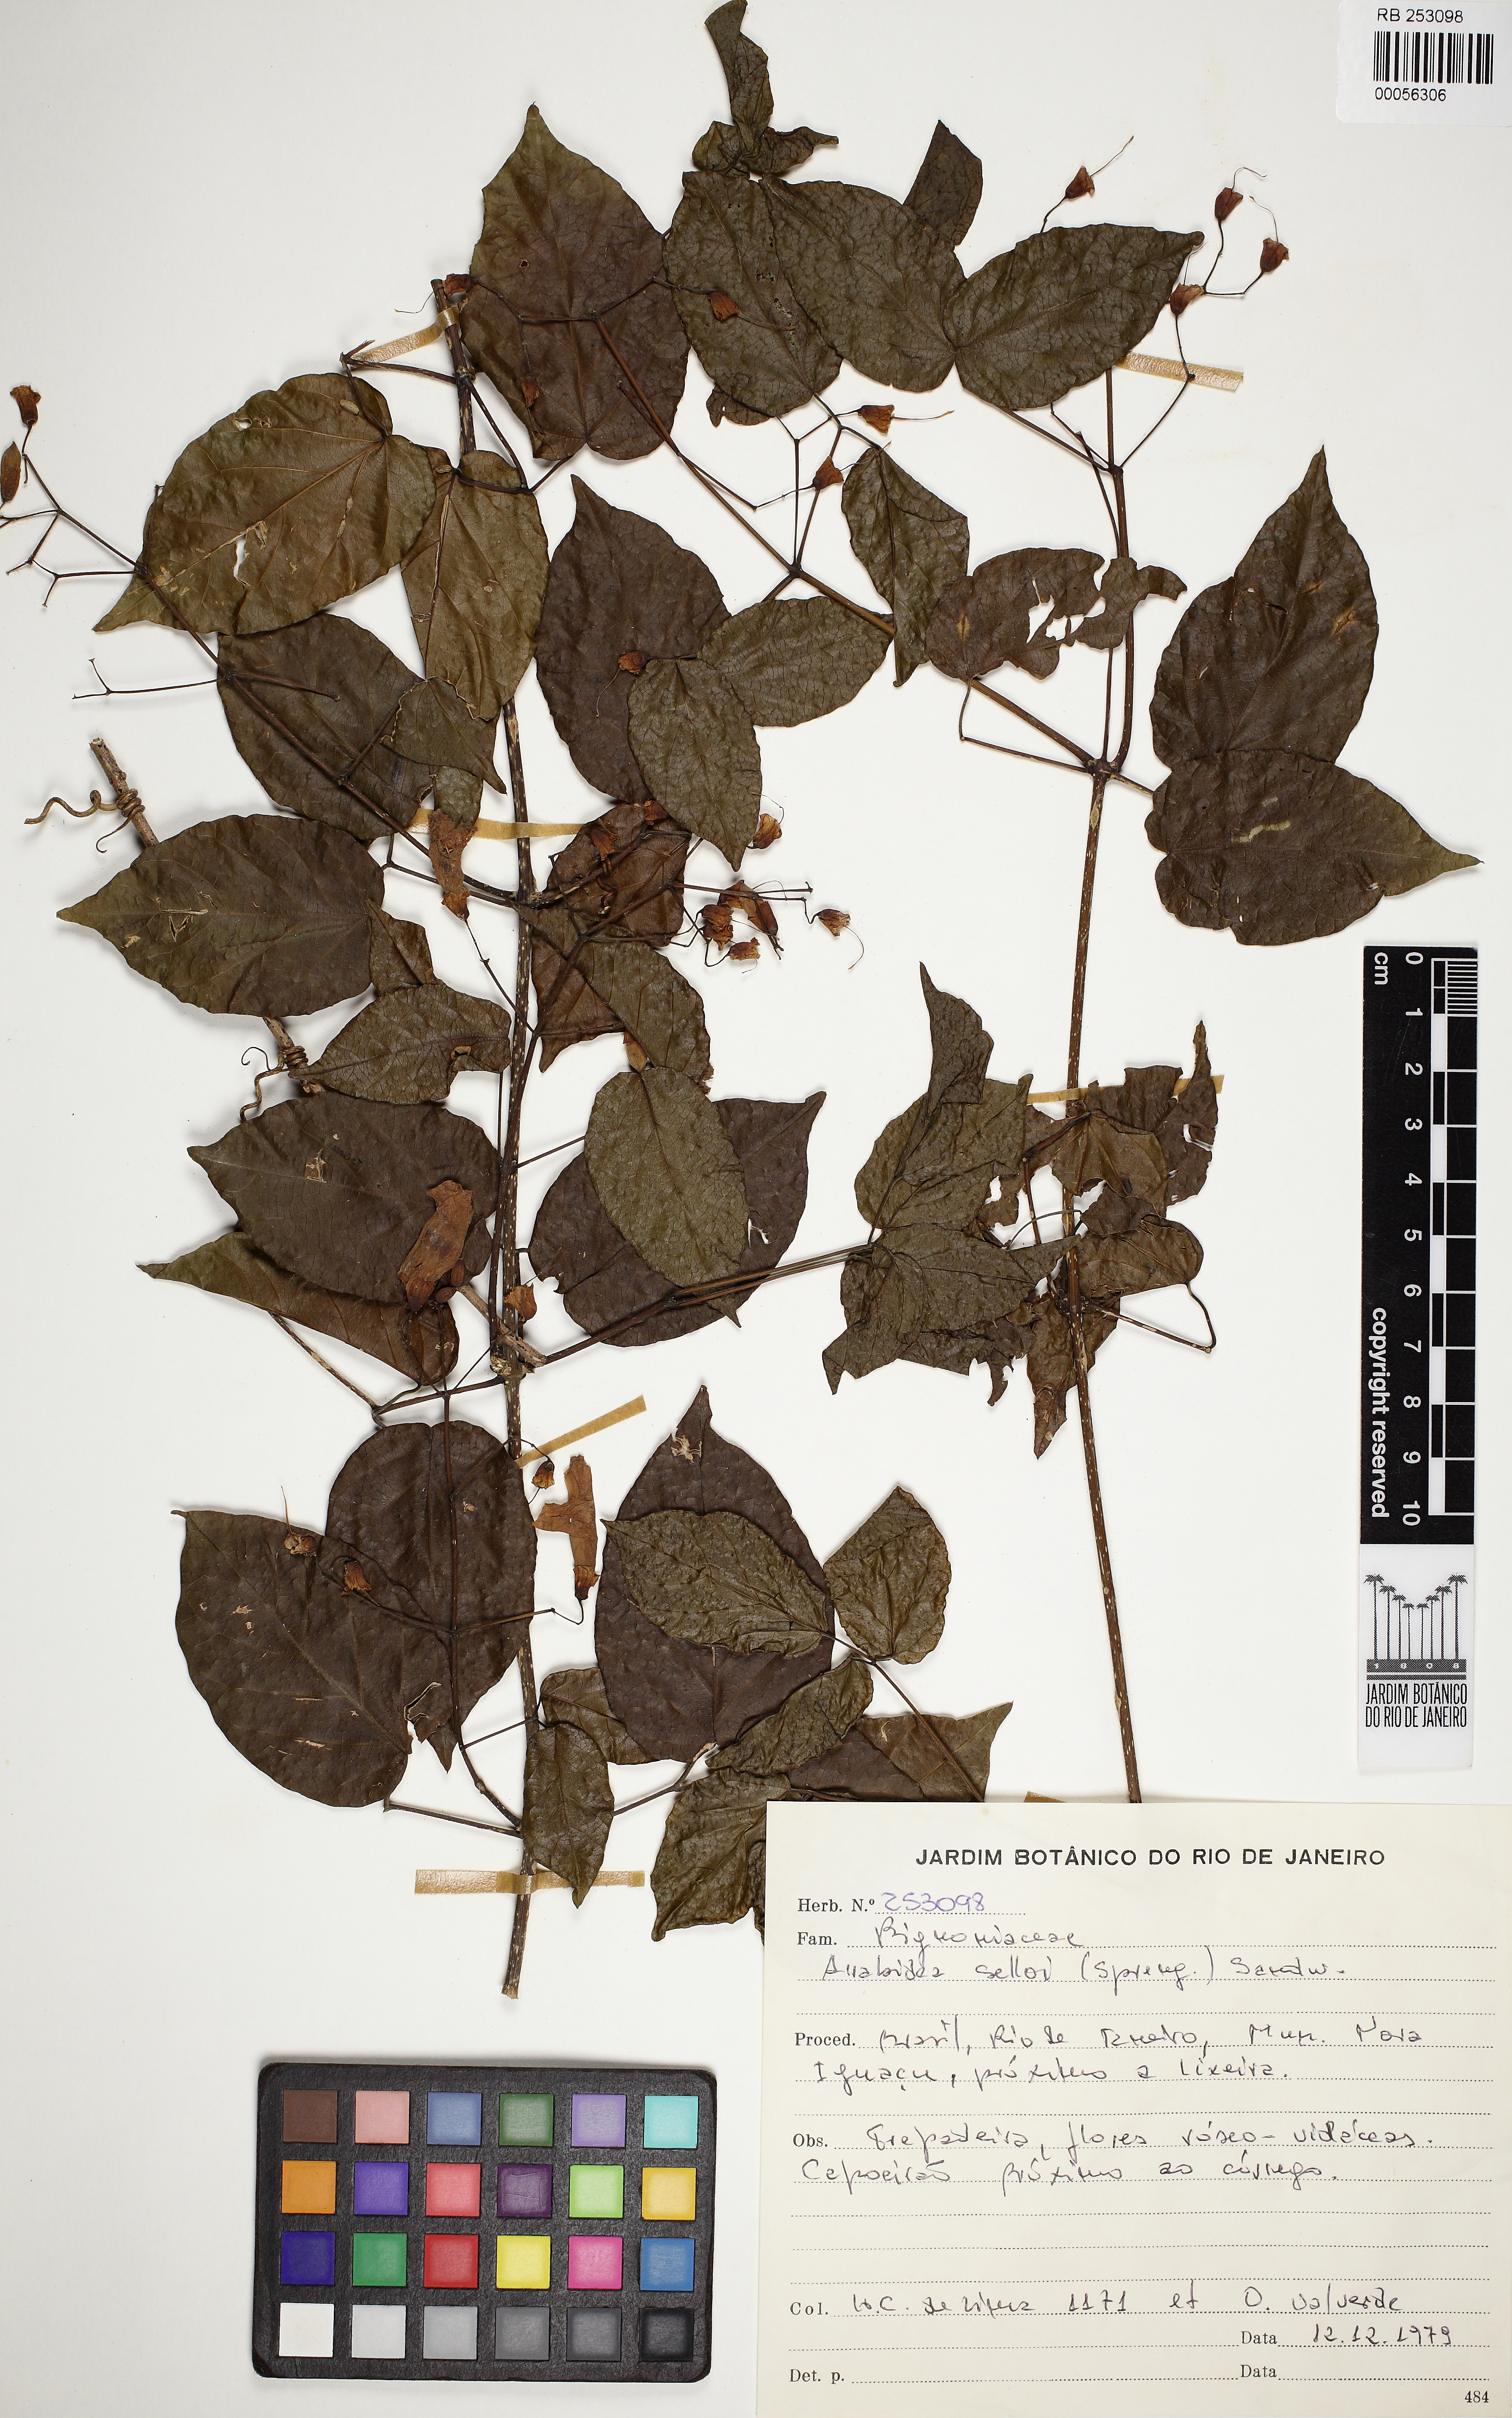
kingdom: Plantae
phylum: Tracheophyta
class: Magnoliopsida
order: Lamiales
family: Bignoniaceae
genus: Tanaecium
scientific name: Tanaecium selloi
